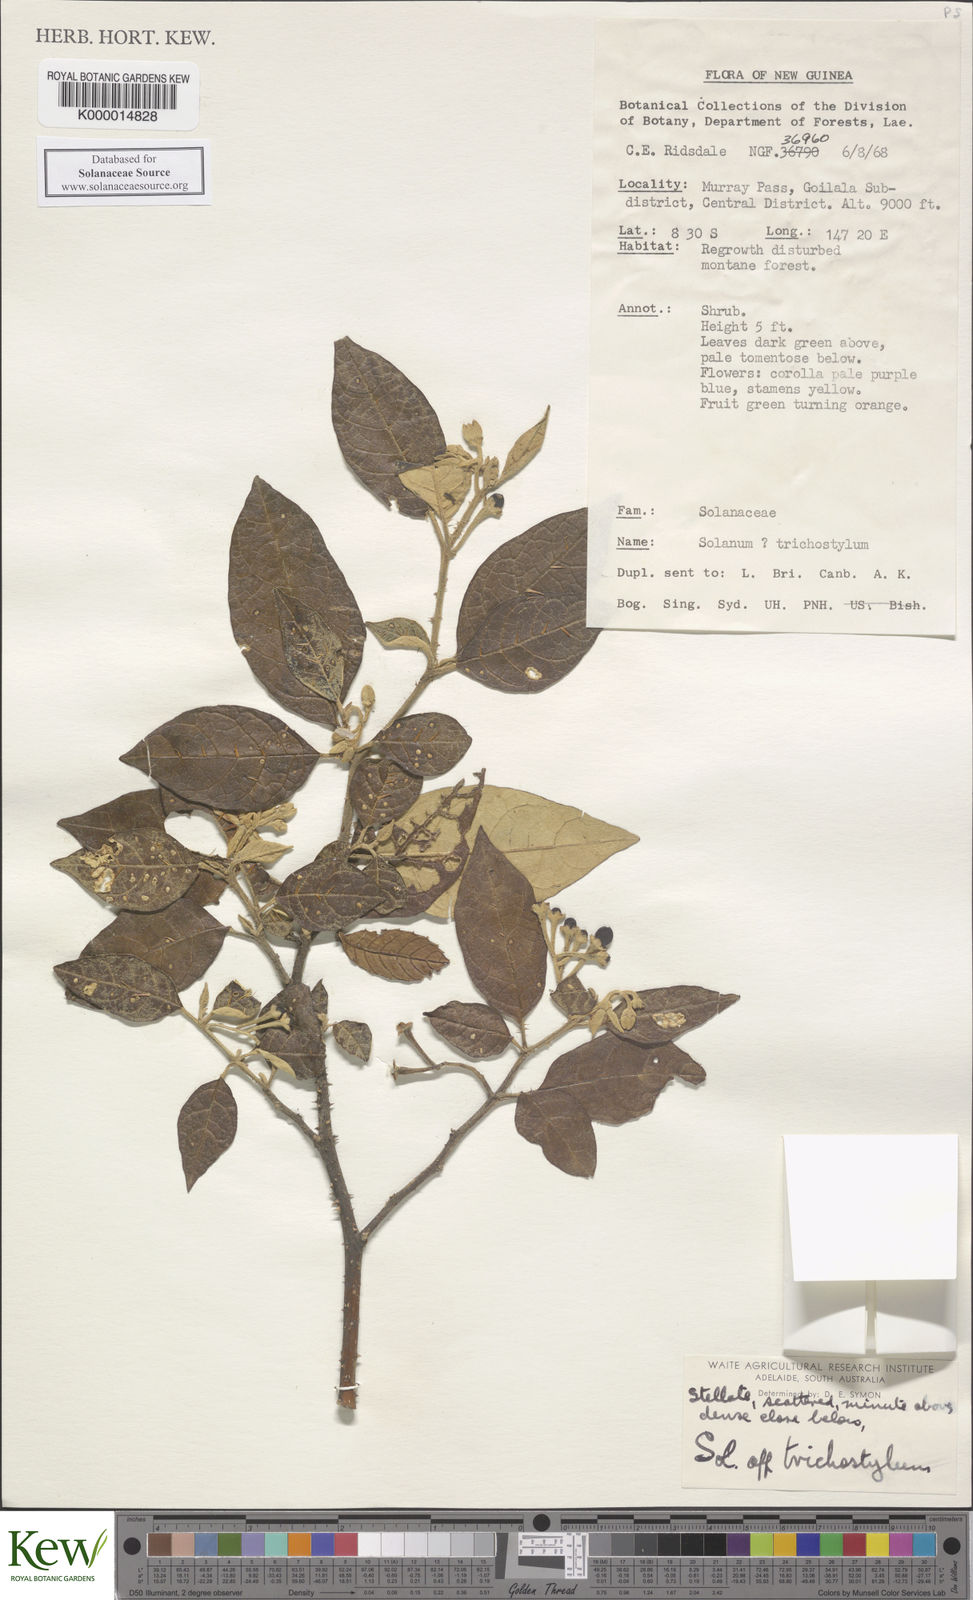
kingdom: Plantae
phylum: Tracheophyta
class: Magnoliopsida
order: Solanales
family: Solanaceae
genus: Solanum
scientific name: Solanum trichostylum
